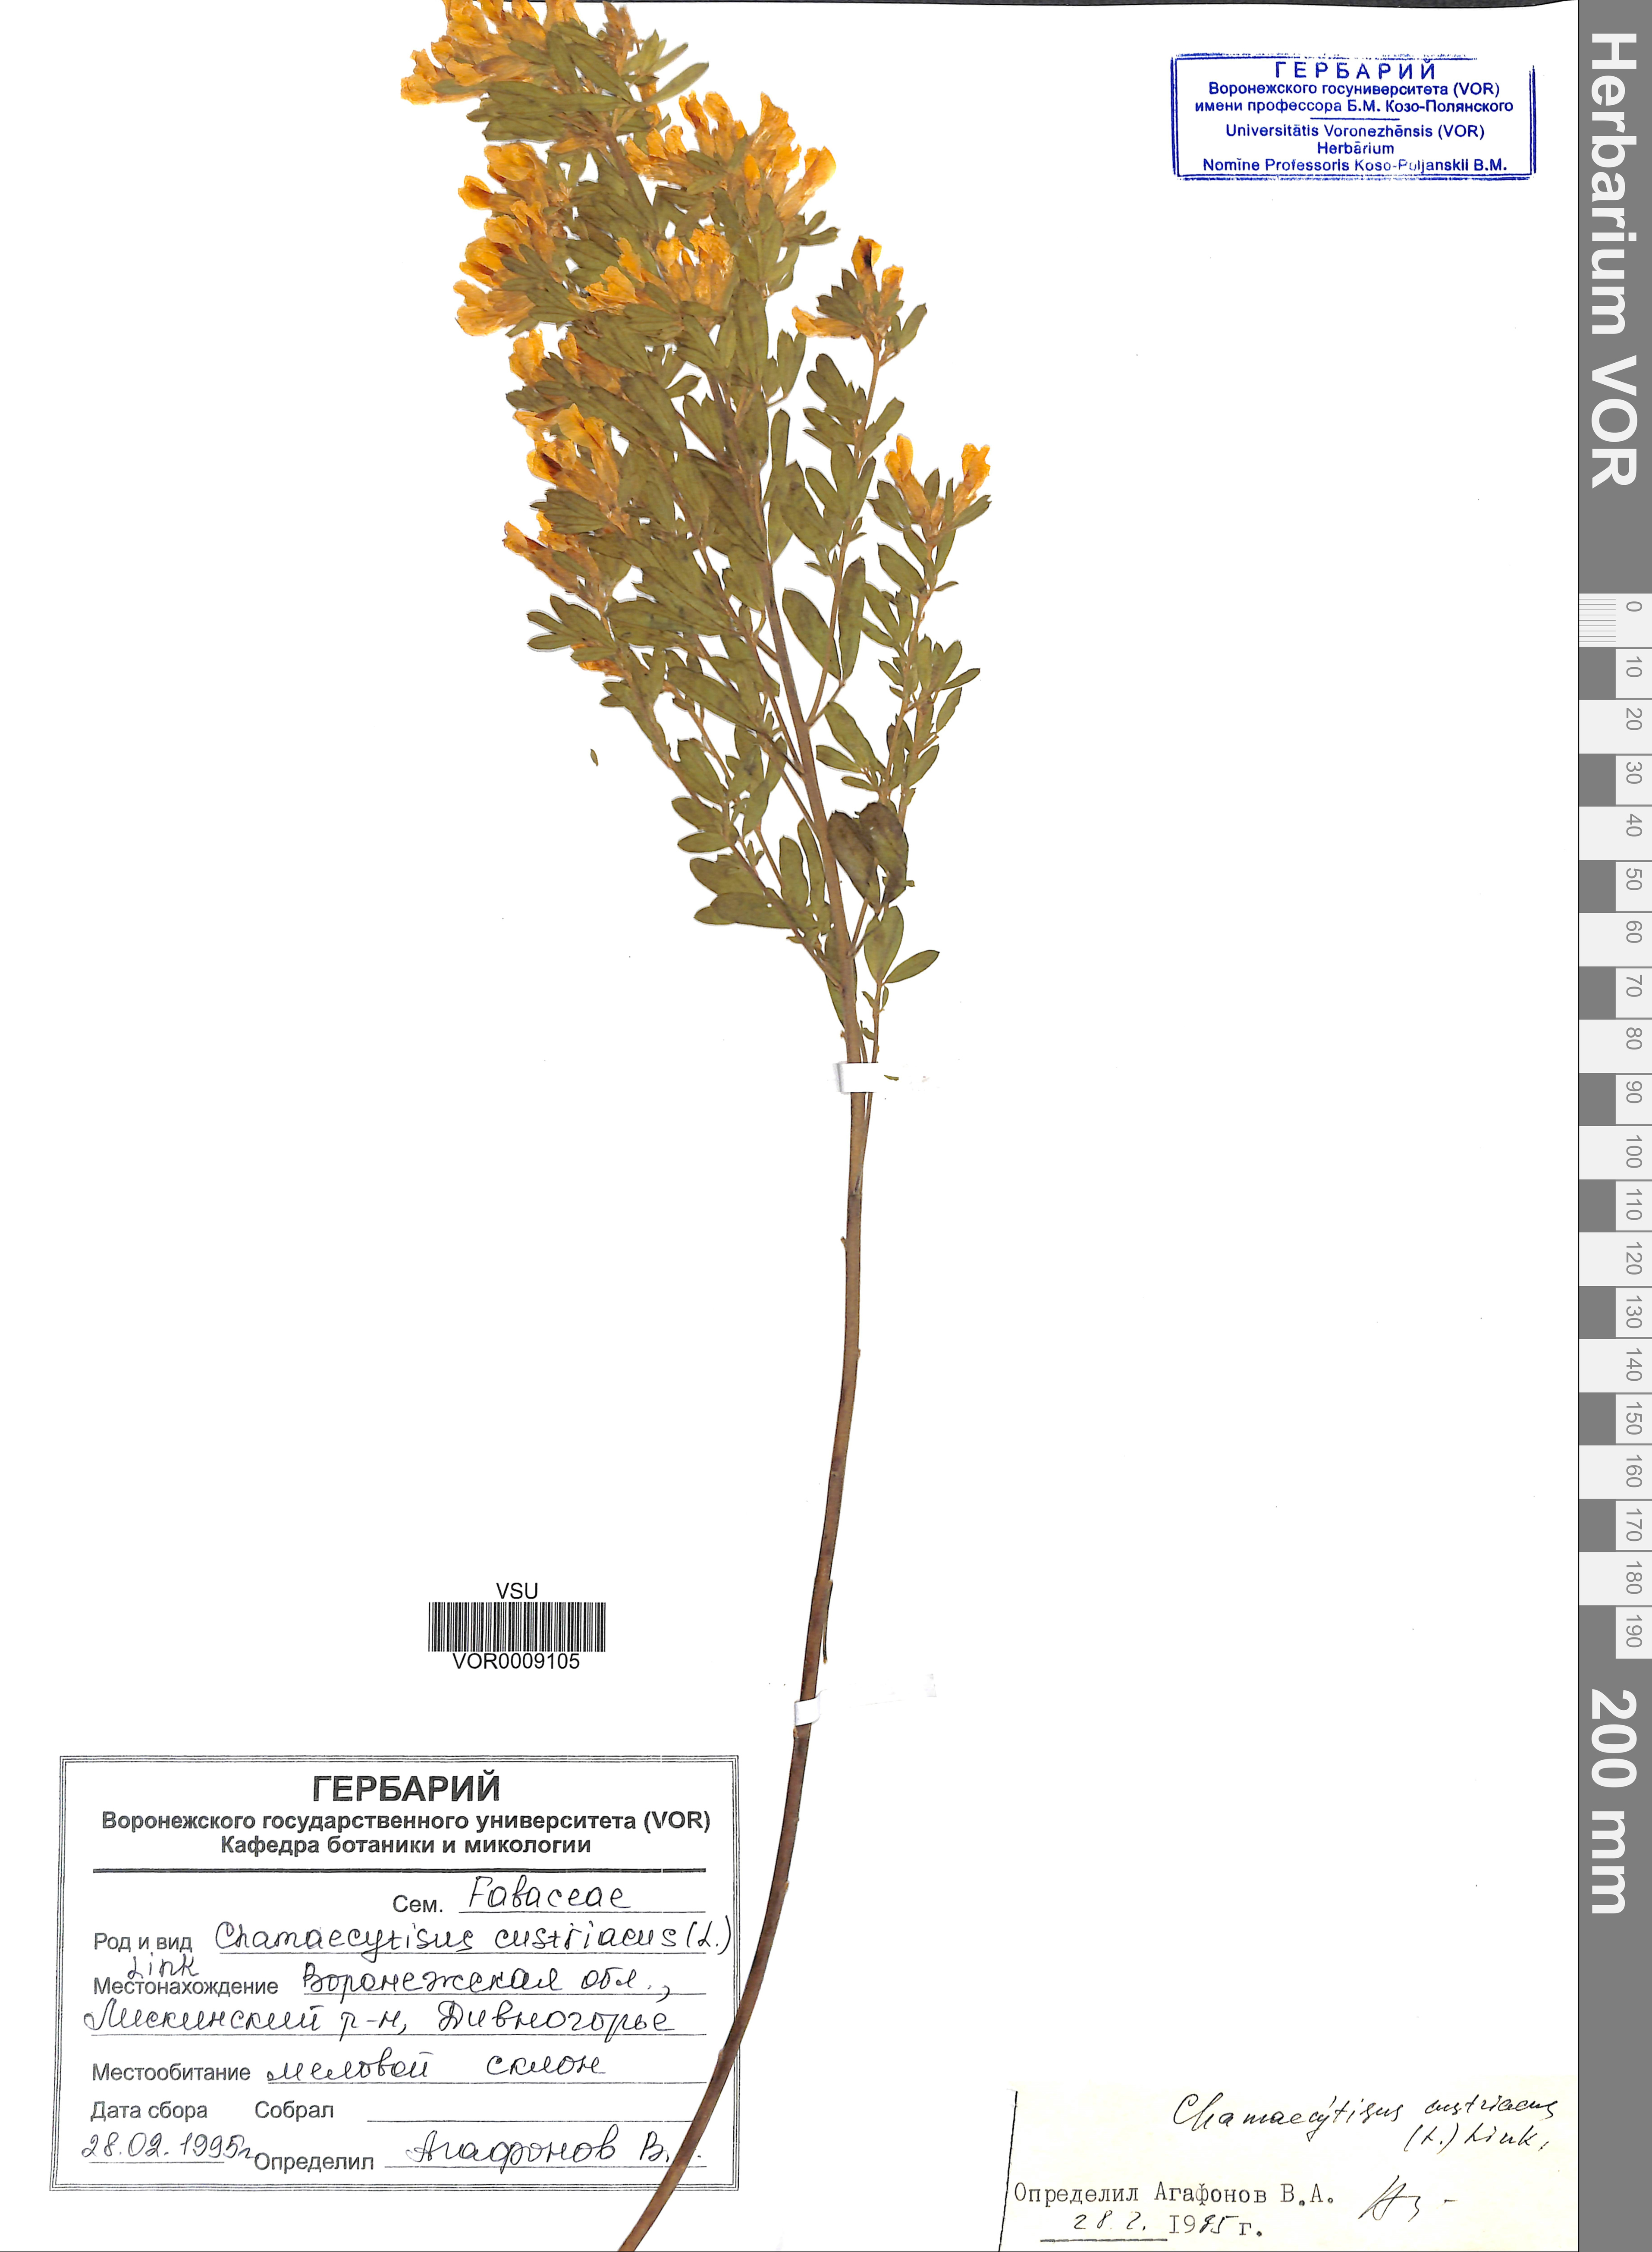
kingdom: Plantae
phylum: Tracheophyta
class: Magnoliopsida
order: Fabales
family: Fabaceae
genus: Chamaecytisus
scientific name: Chamaecytisus austriacus
